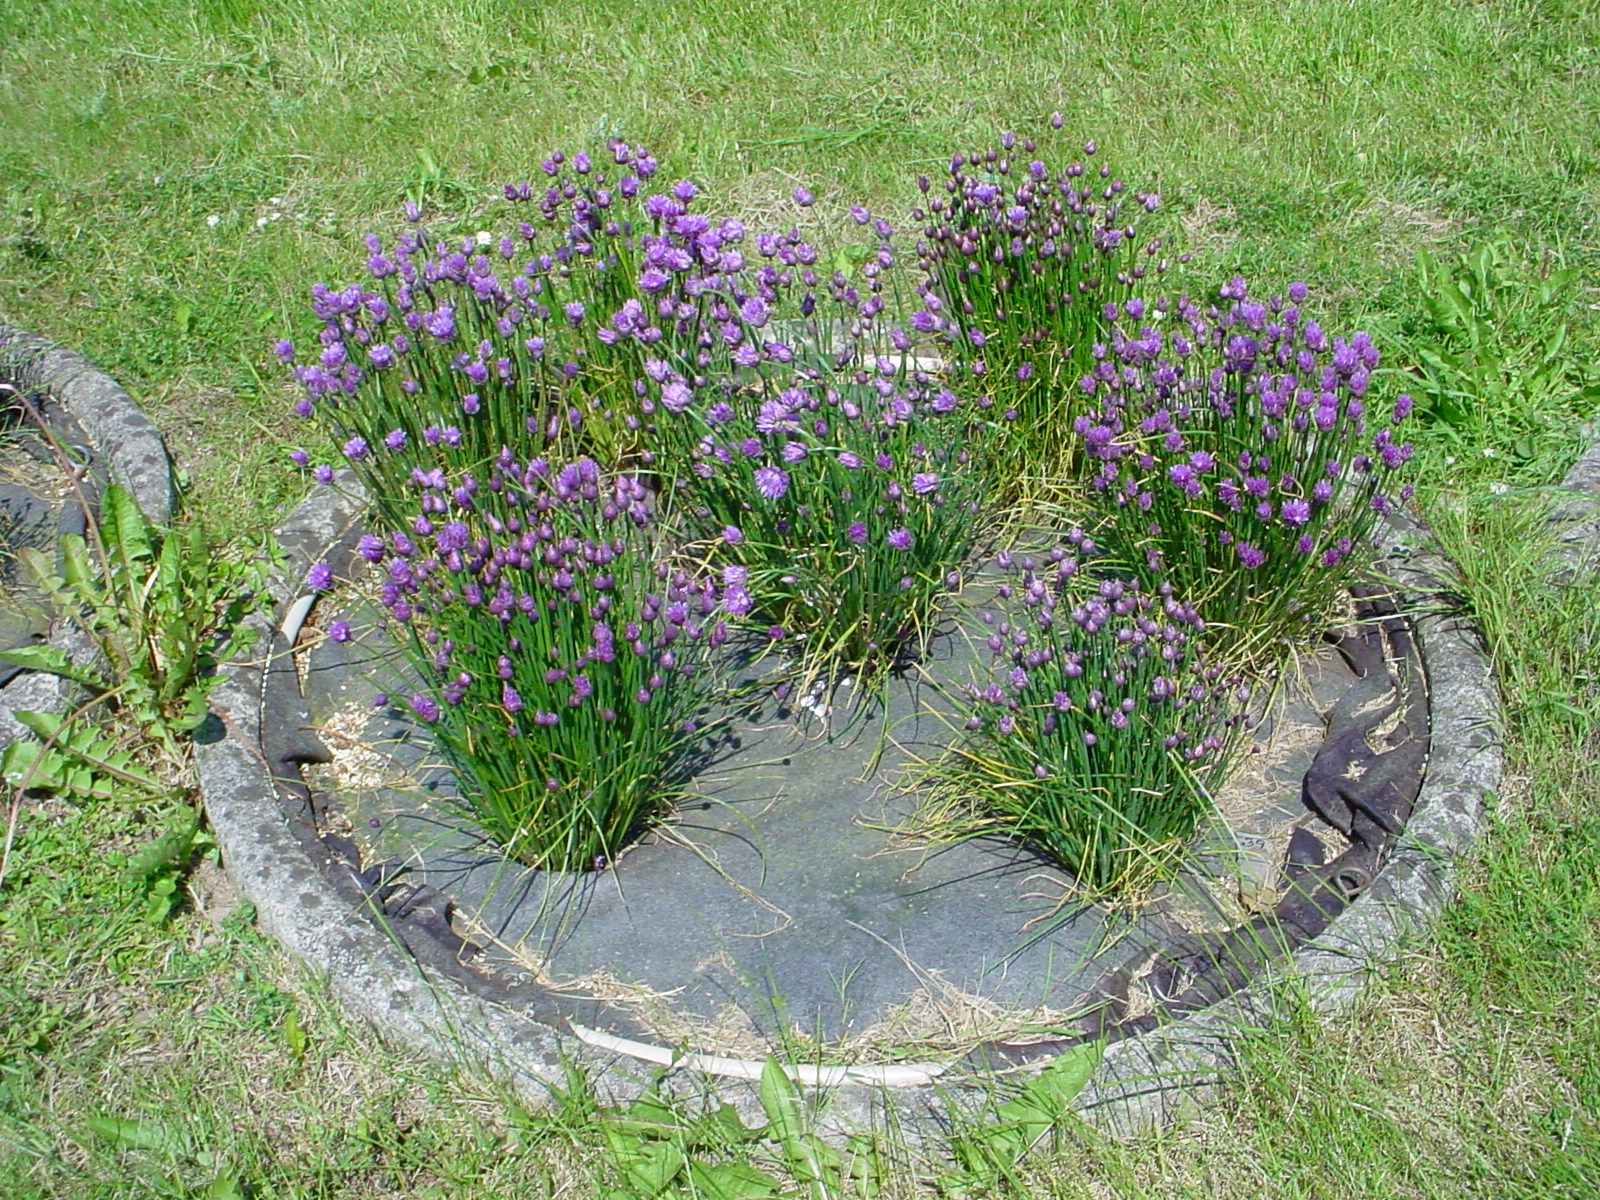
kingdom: Plantae
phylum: Tracheophyta
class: Liliopsida
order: Asparagales
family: Amaryllidaceae
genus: Allium
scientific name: Allium schoenoprasum
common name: Chives
